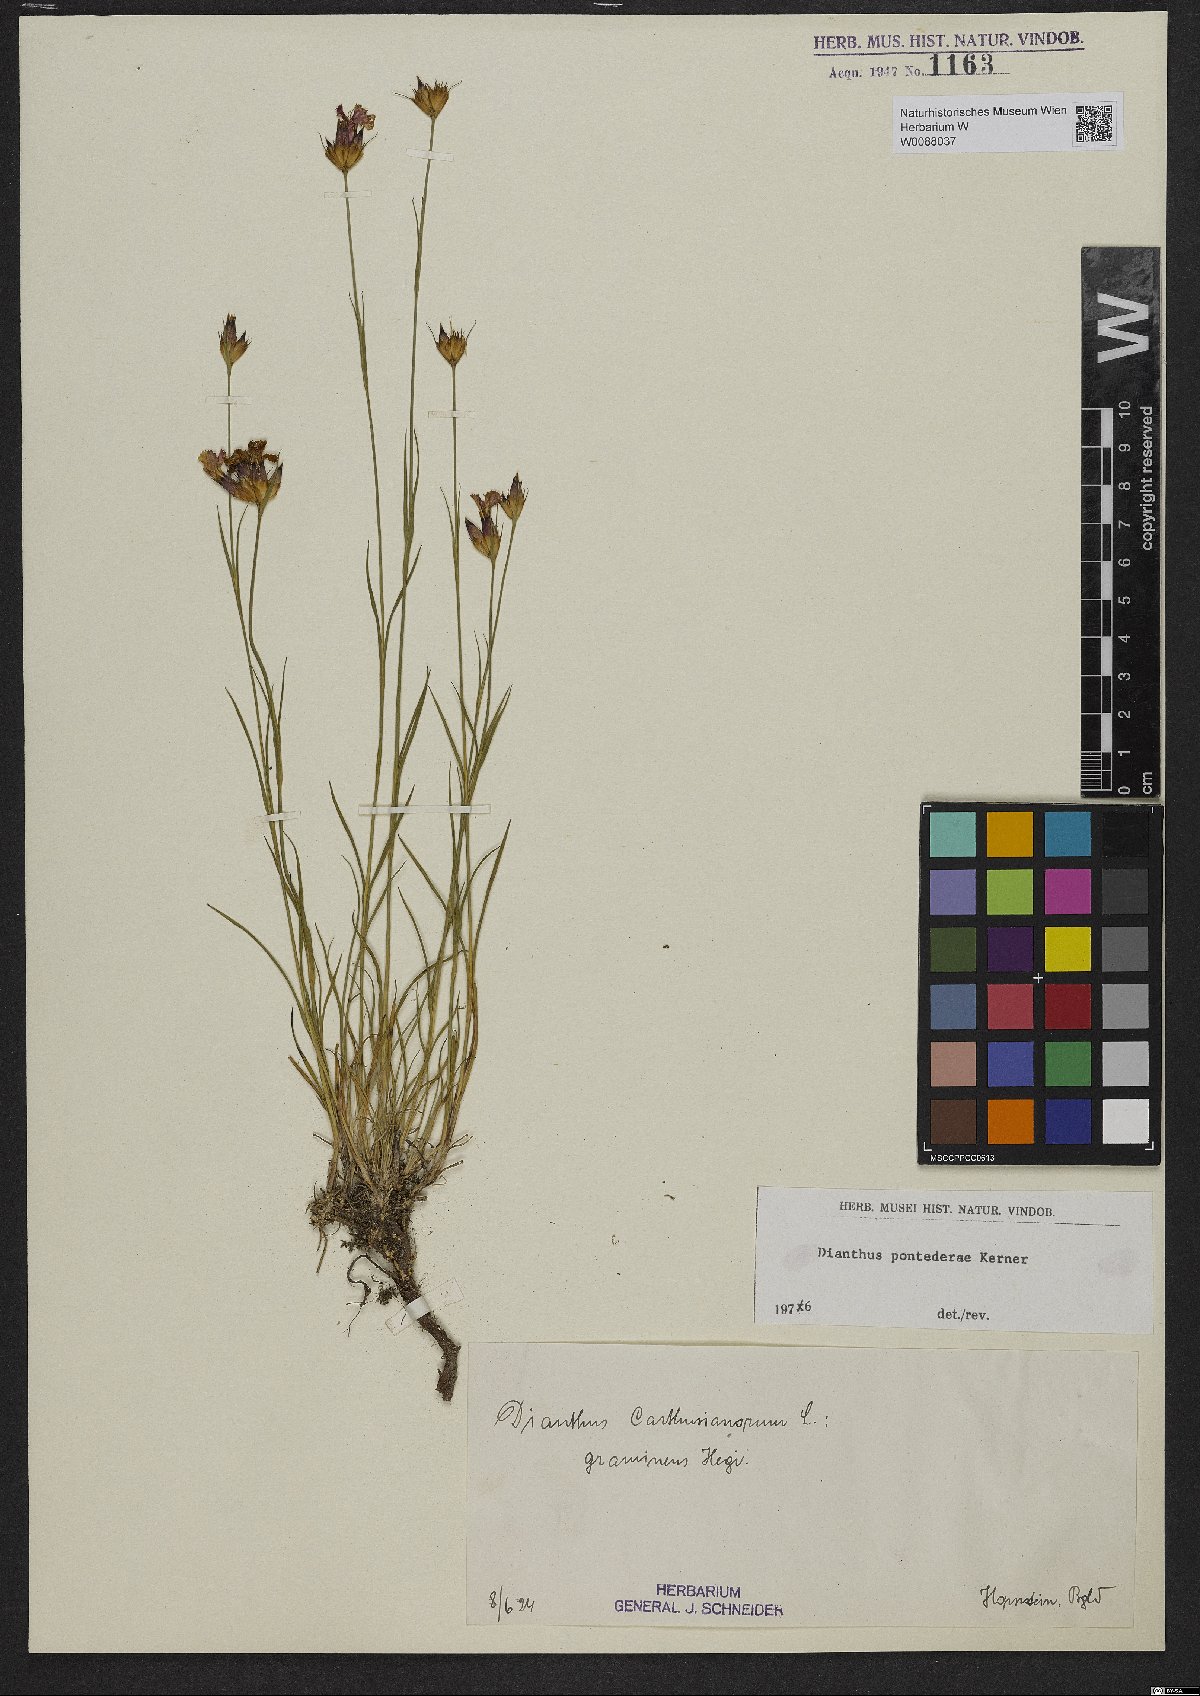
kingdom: Plantae
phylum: Tracheophyta
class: Magnoliopsida
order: Caryophyllales
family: Caryophyllaceae
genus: Dianthus
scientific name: Dianthus pontederae
